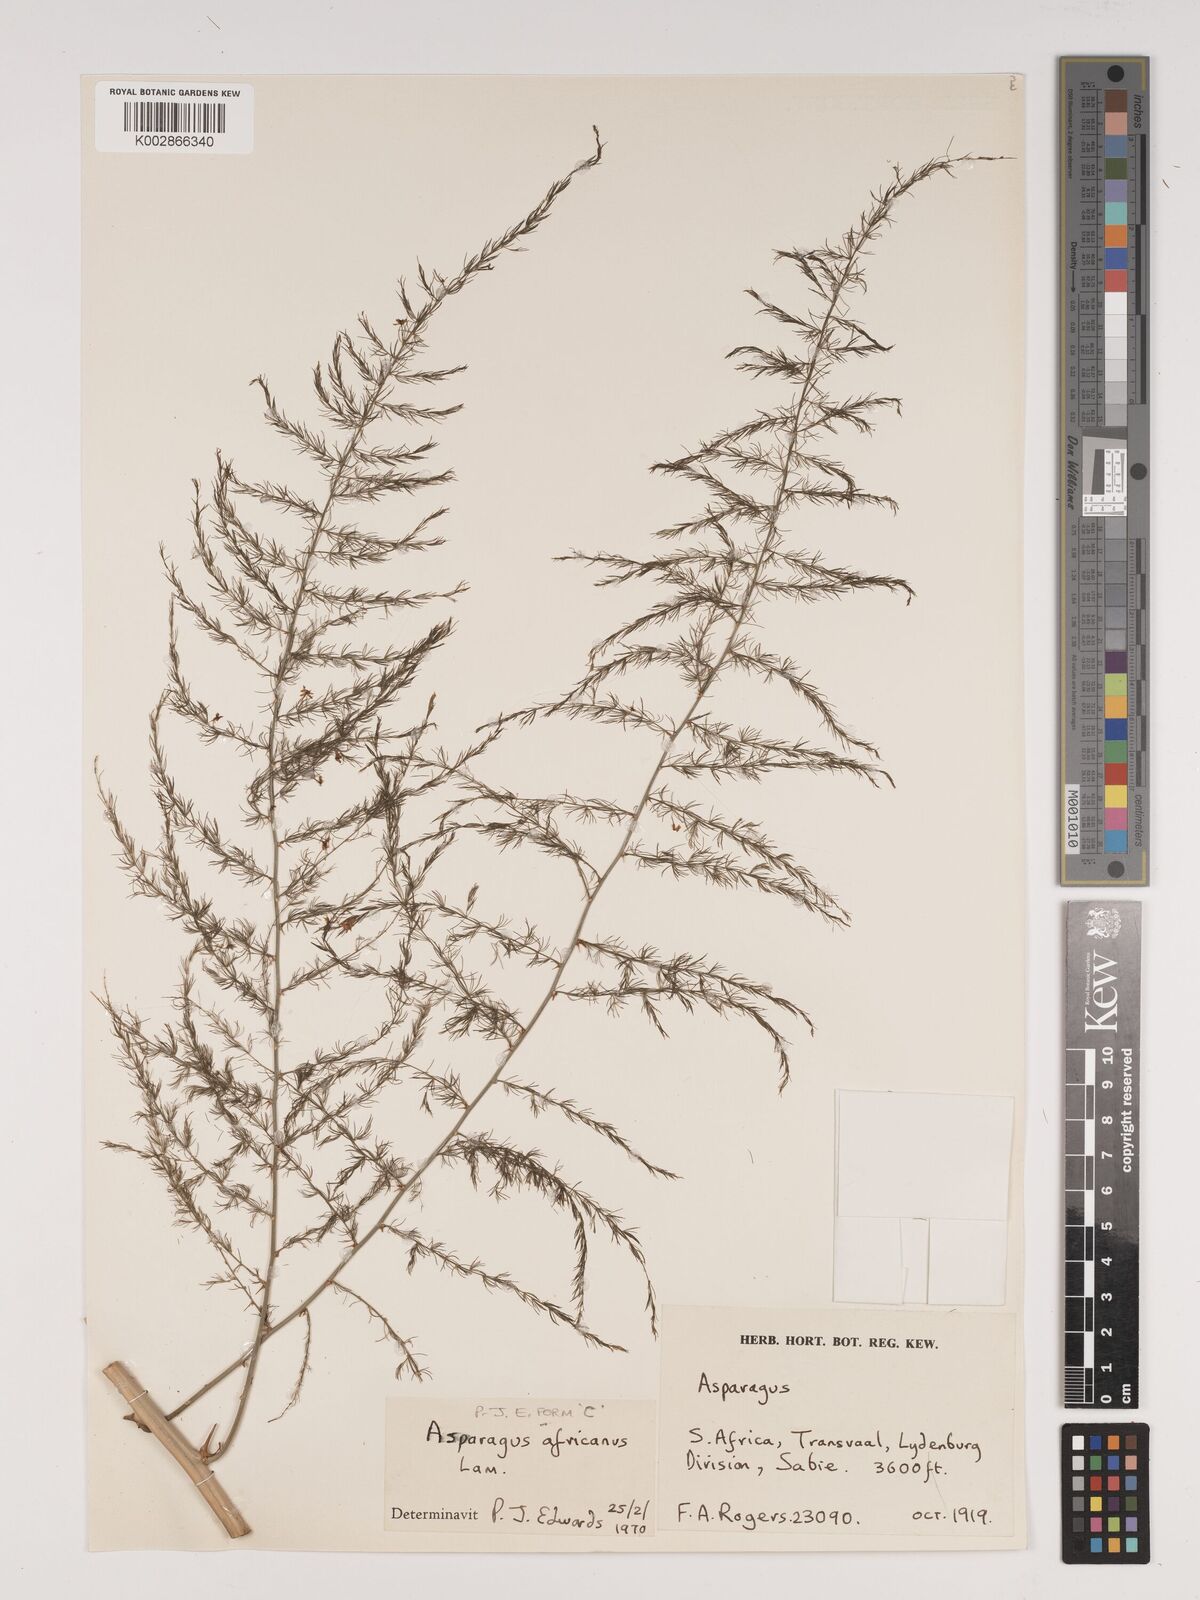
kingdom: Plantae
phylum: Tracheophyta
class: Liliopsida
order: Asparagales
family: Asparagaceae
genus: Asparagus
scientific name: Asparagus africanus
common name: Asparagus-fern
